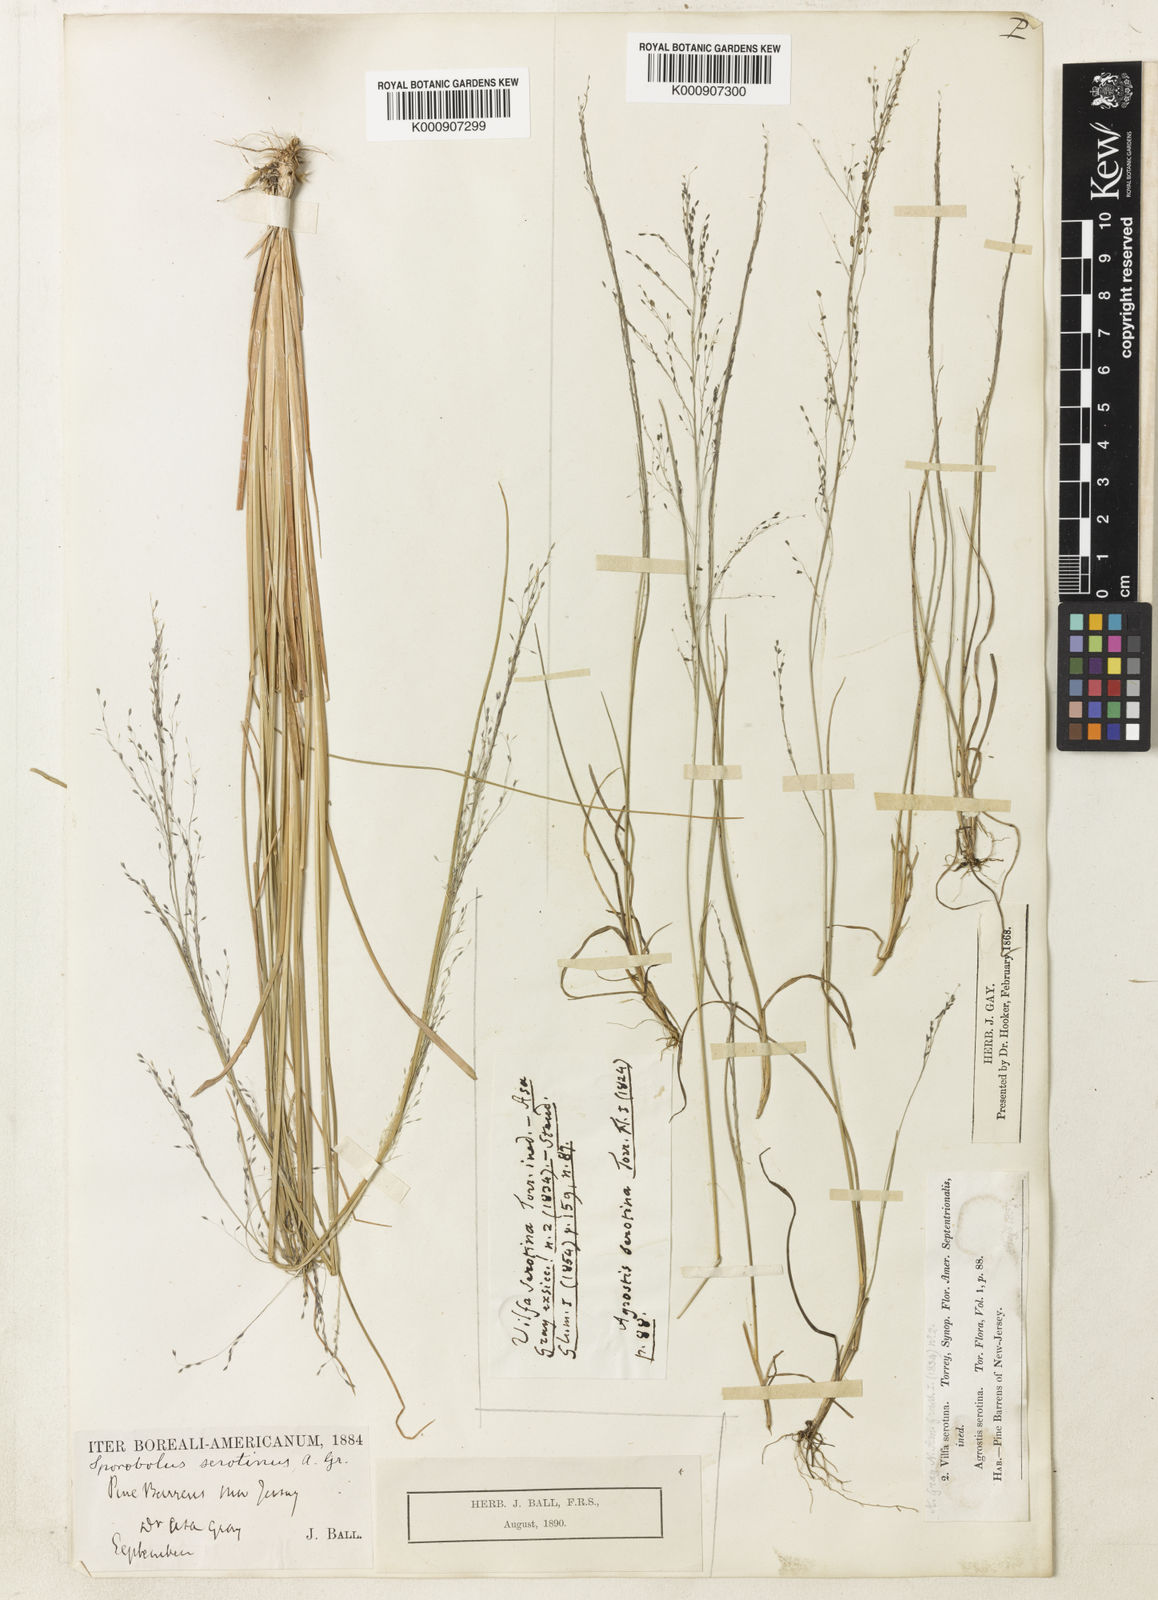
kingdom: Plantae
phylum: Tracheophyta
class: Liliopsida
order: Poales
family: Poaceae
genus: Muhlenbergia
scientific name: Muhlenbergia uniflora
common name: Bog muhly
